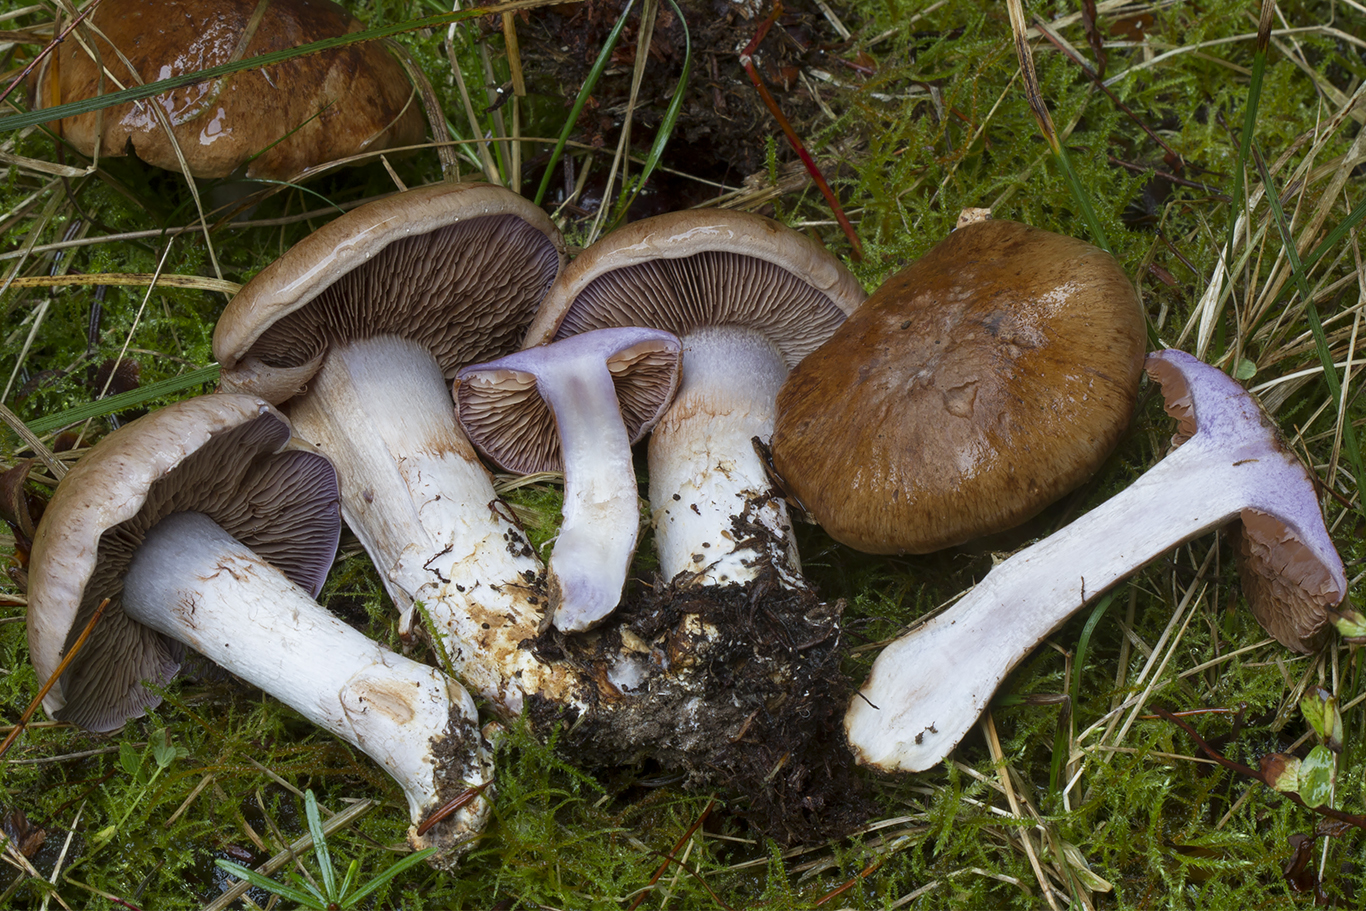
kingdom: Fungi
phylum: Basidiomycota
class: Agaricomycetes
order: Agaricales
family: Cortinariaceae
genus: Phlegmacium
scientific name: Phlegmacium eliae
